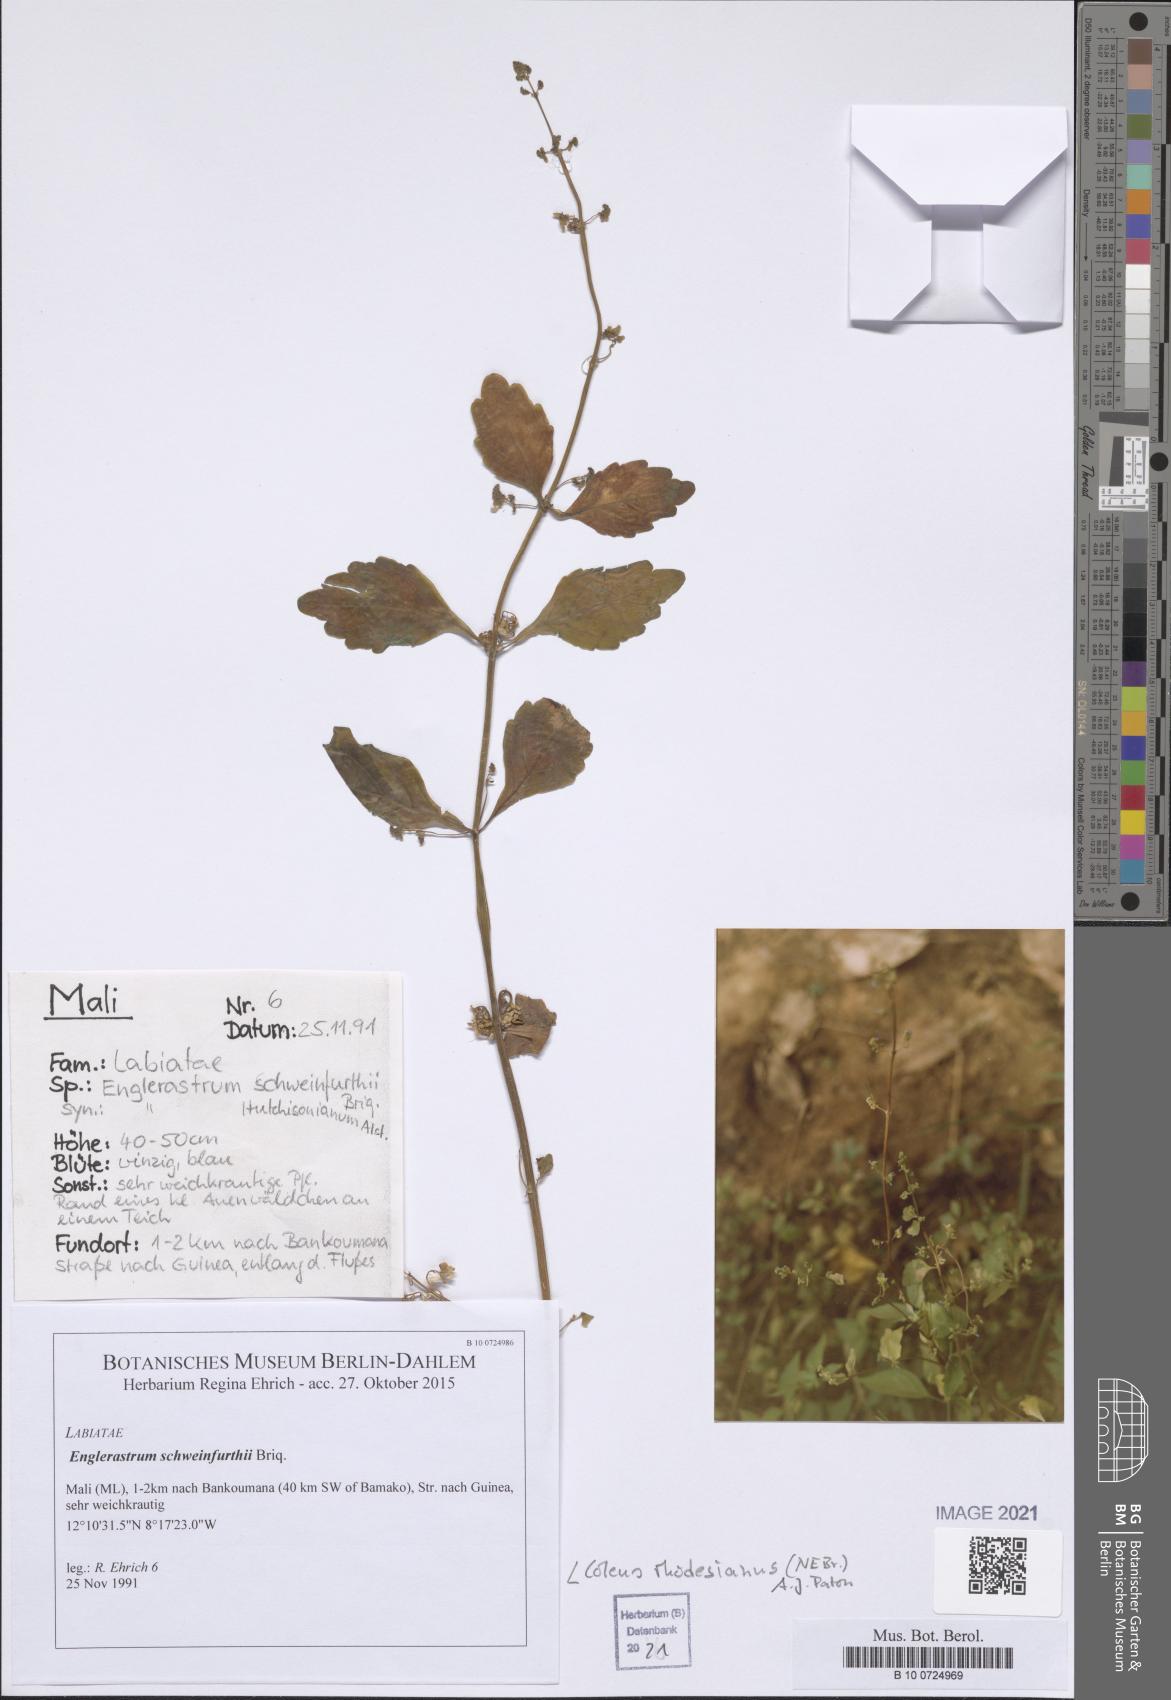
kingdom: Plantae
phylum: Tracheophyta
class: Magnoliopsida
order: Lamiales
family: Lamiaceae
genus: Coleus
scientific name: Coleus rhodesianum
